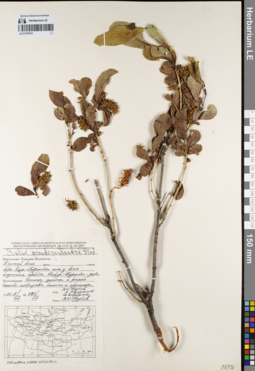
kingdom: Plantae
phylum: Tracheophyta
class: Magnoliopsida
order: Malpighiales
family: Salicaceae
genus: Salix
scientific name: Salix pseudopentandra
